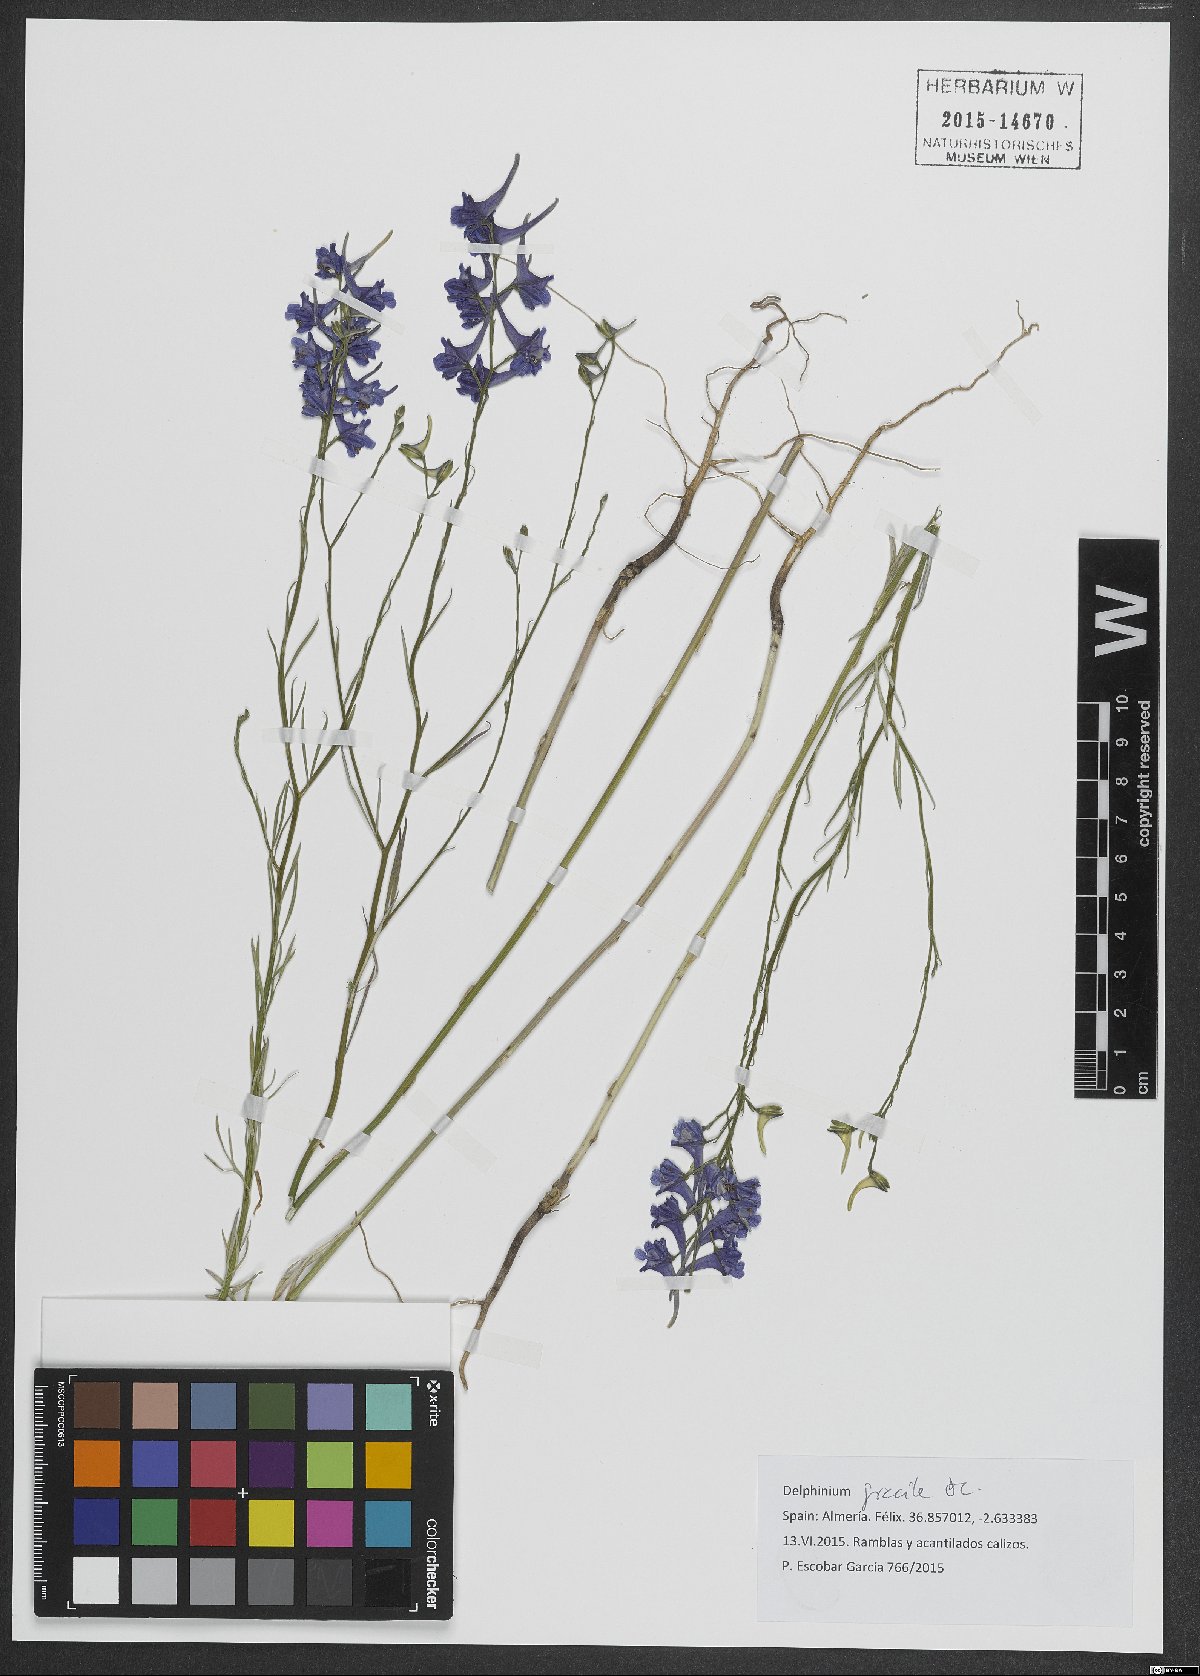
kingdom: Plantae
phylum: Tracheophyta
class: Magnoliopsida
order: Ranunculales
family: Ranunculaceae
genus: Delphinium
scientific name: Delphinium gracile
